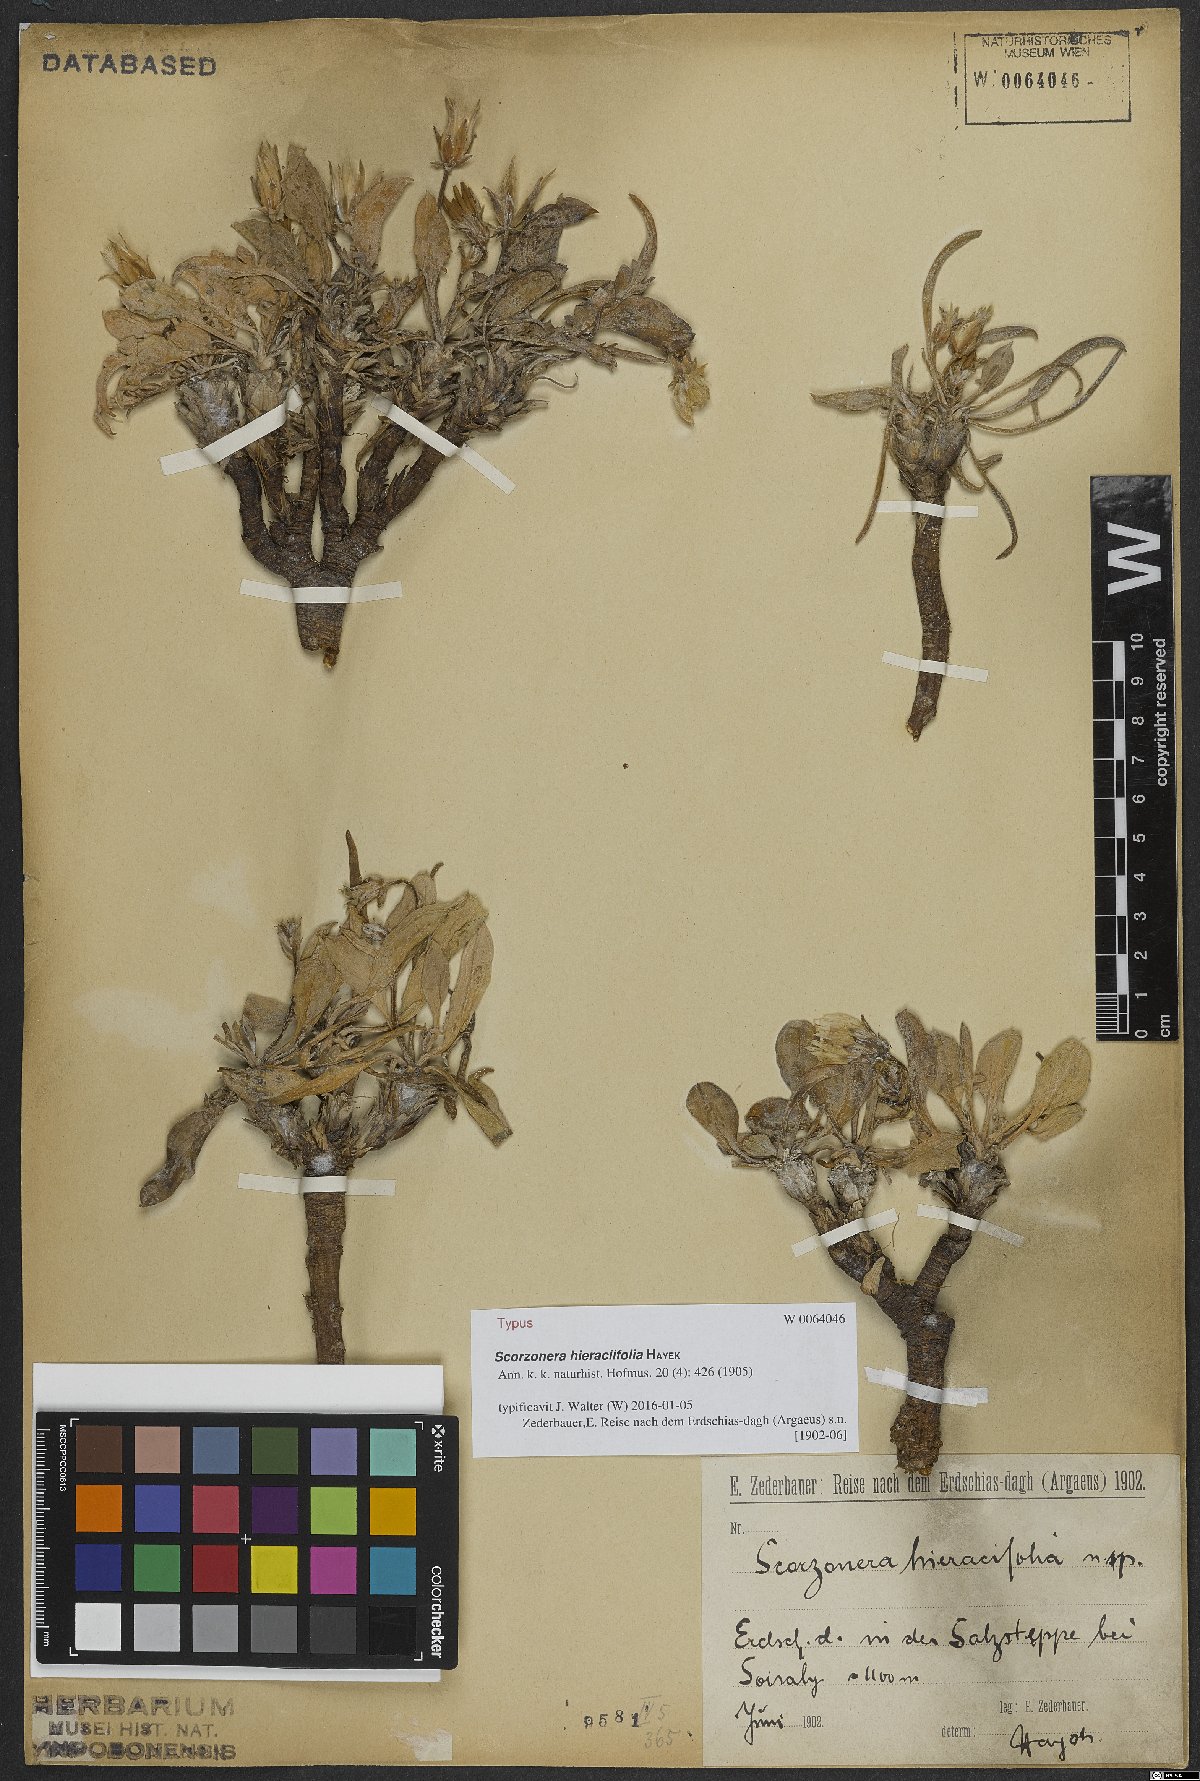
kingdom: Plantae
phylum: Tracheophyta
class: Magnoliopsida
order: Asterales
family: Asteraceae
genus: Scorzonera
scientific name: Scorzonera hieraciifolia
